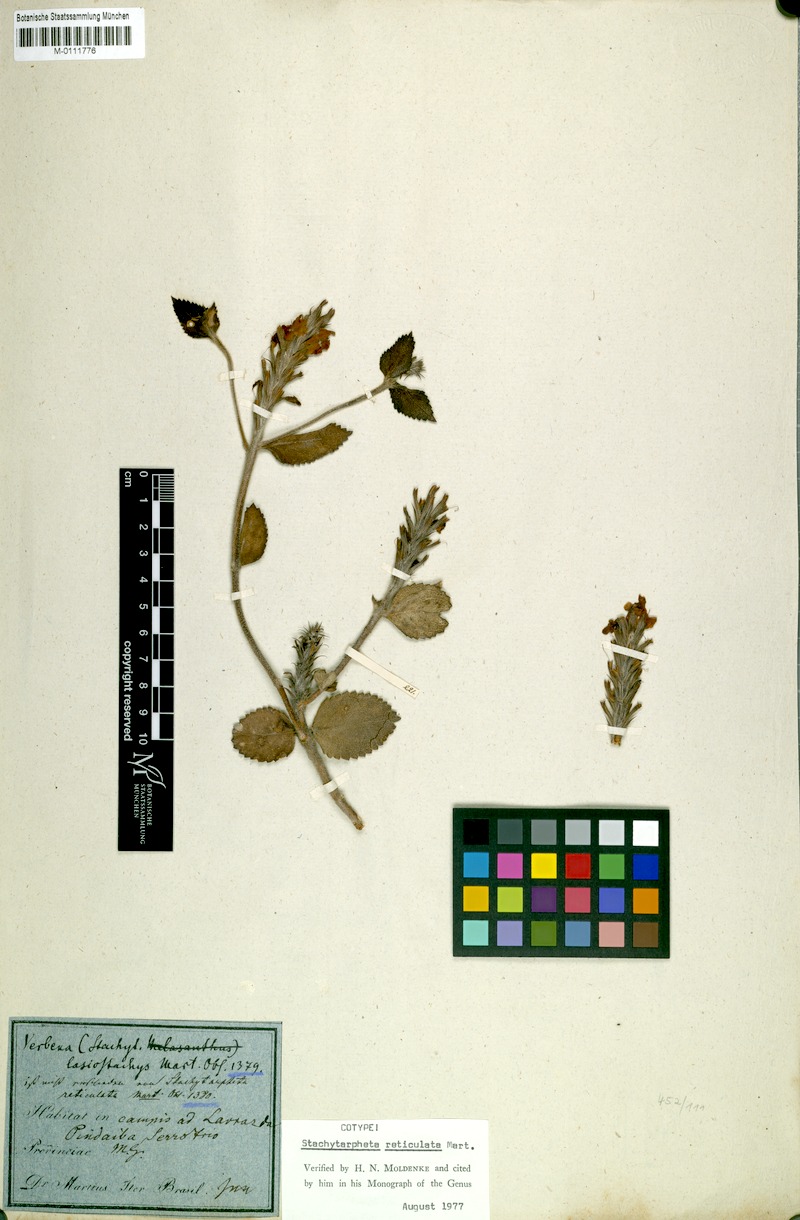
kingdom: Plantae
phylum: Tracheophyta
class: Magnoliopsida
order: Lamiales
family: Verbenaceae
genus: Stachytarpheta
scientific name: Stachytarpheta reticulata
